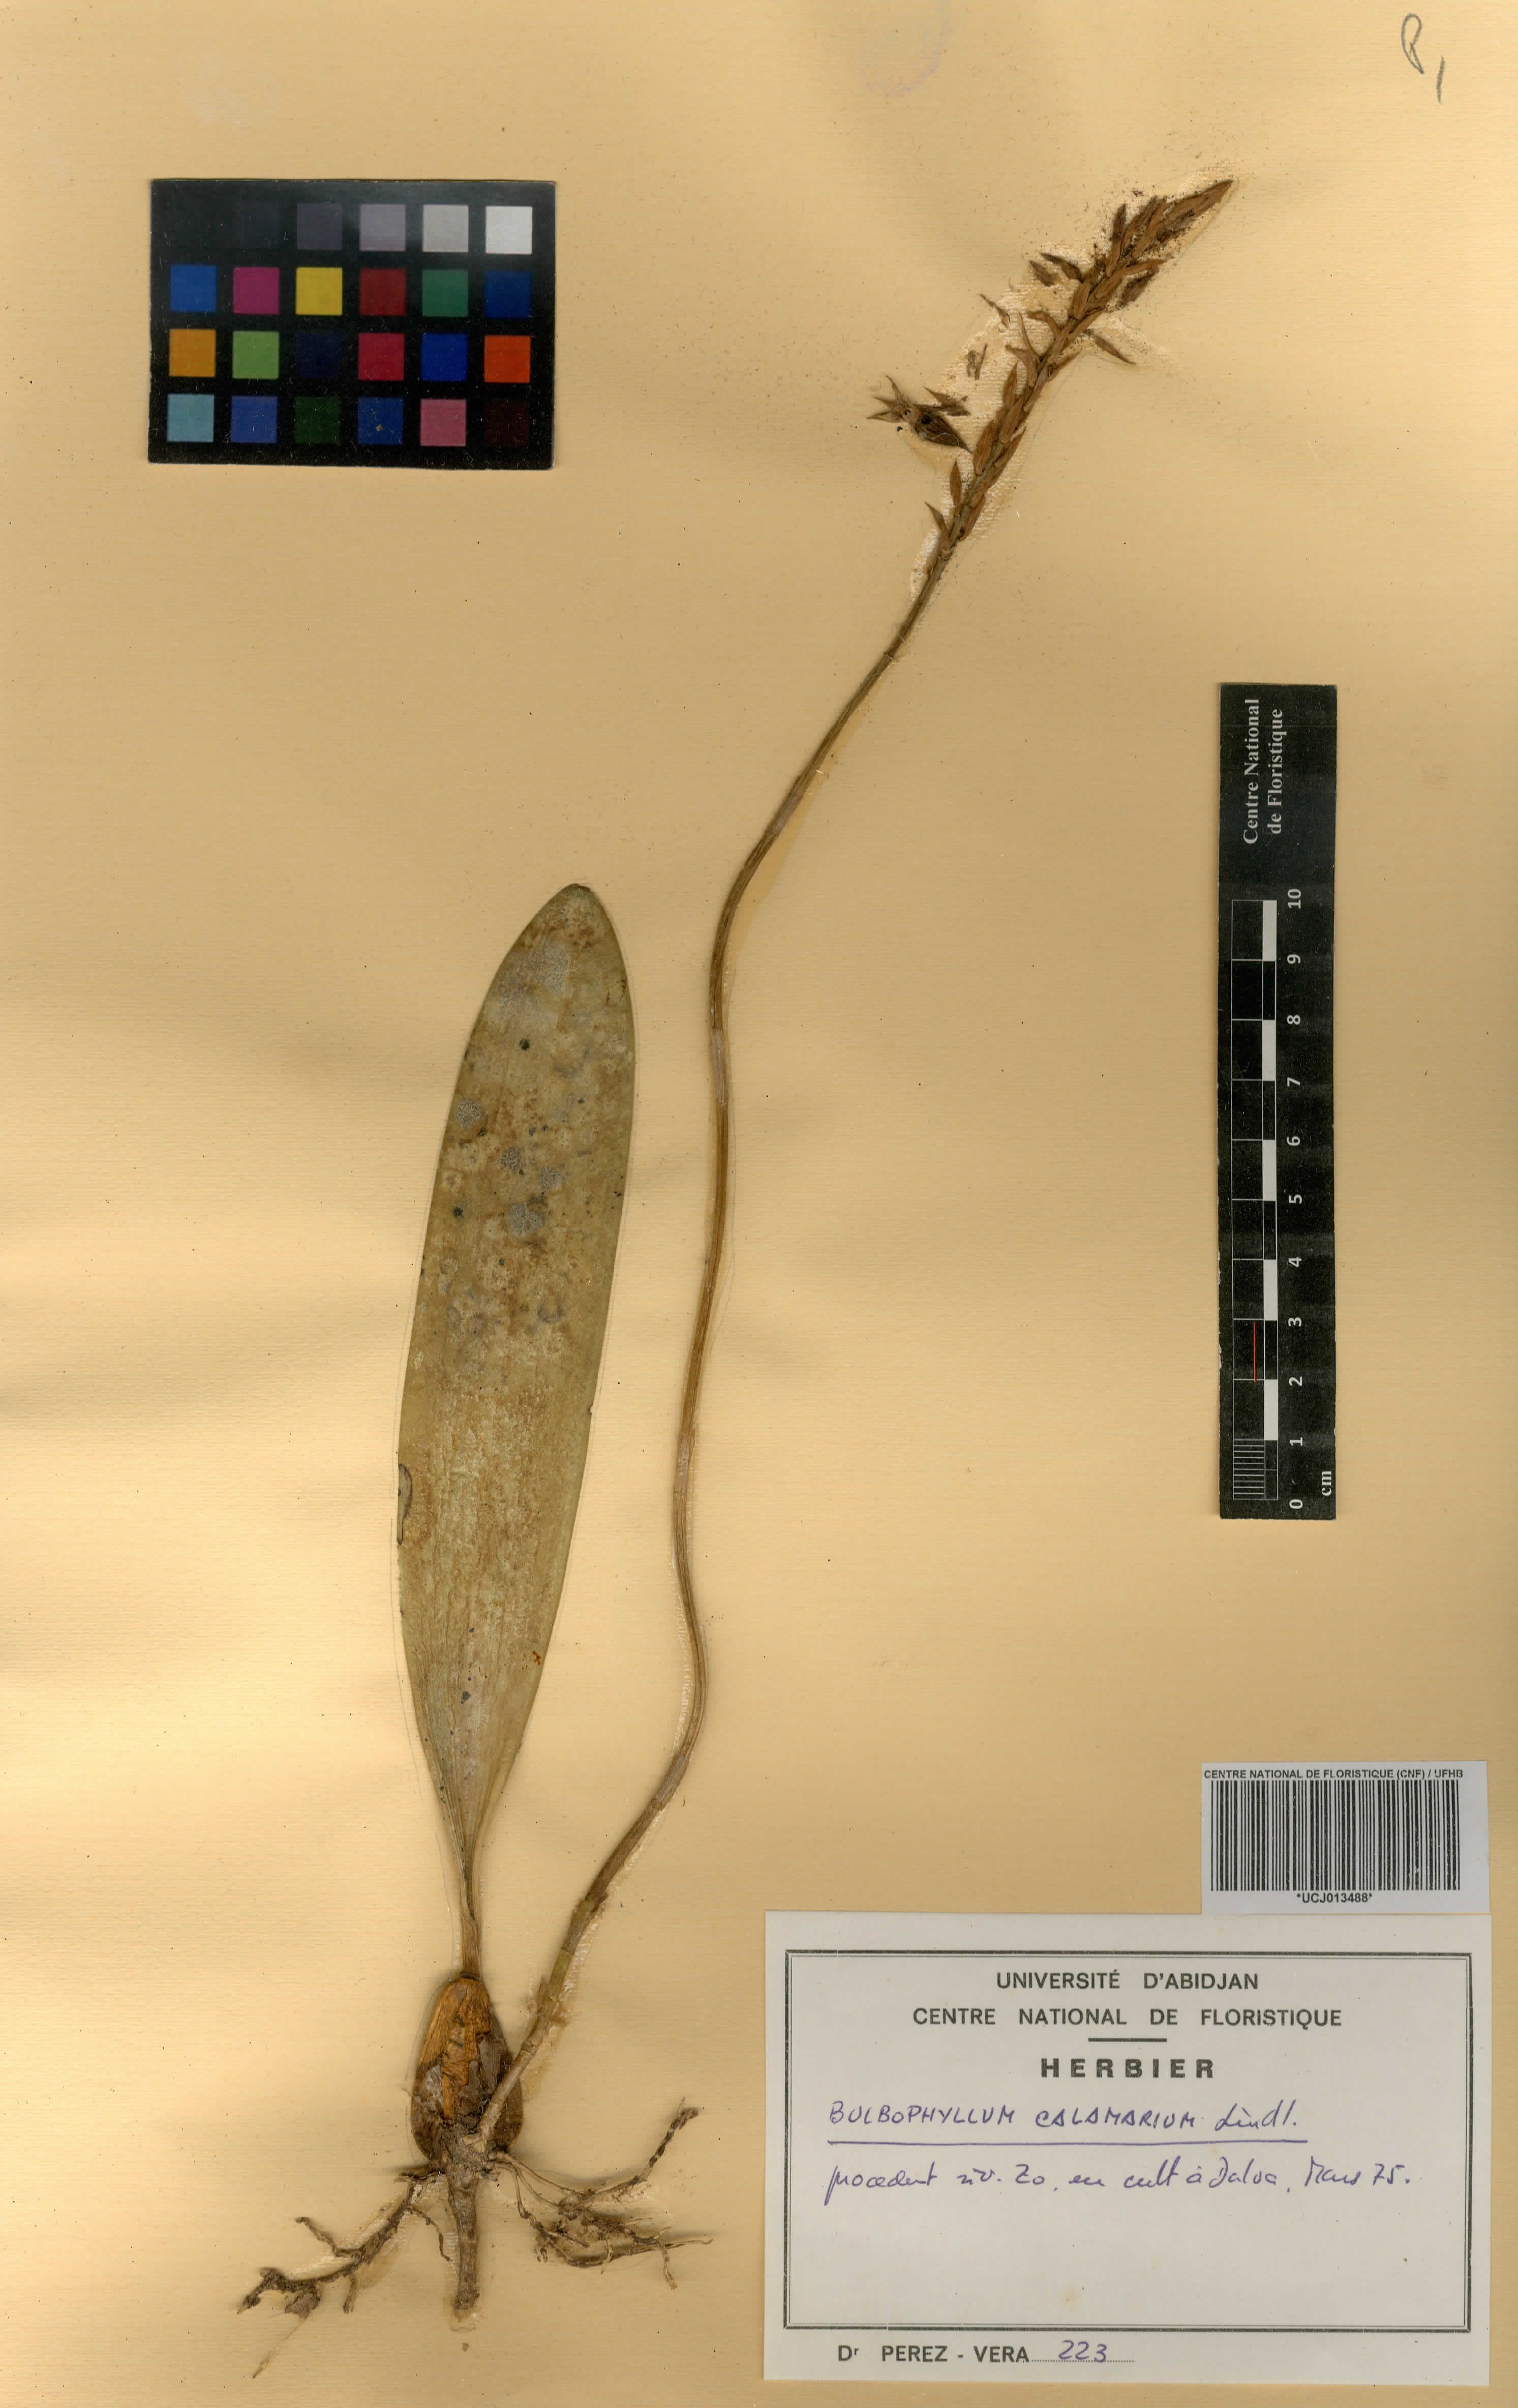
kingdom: Plantae
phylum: Tracheophyta
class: Liliopsida
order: Asparagales
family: Orchidaceae
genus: Bulbophyllum
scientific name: Bulbophyllum saltatorium
